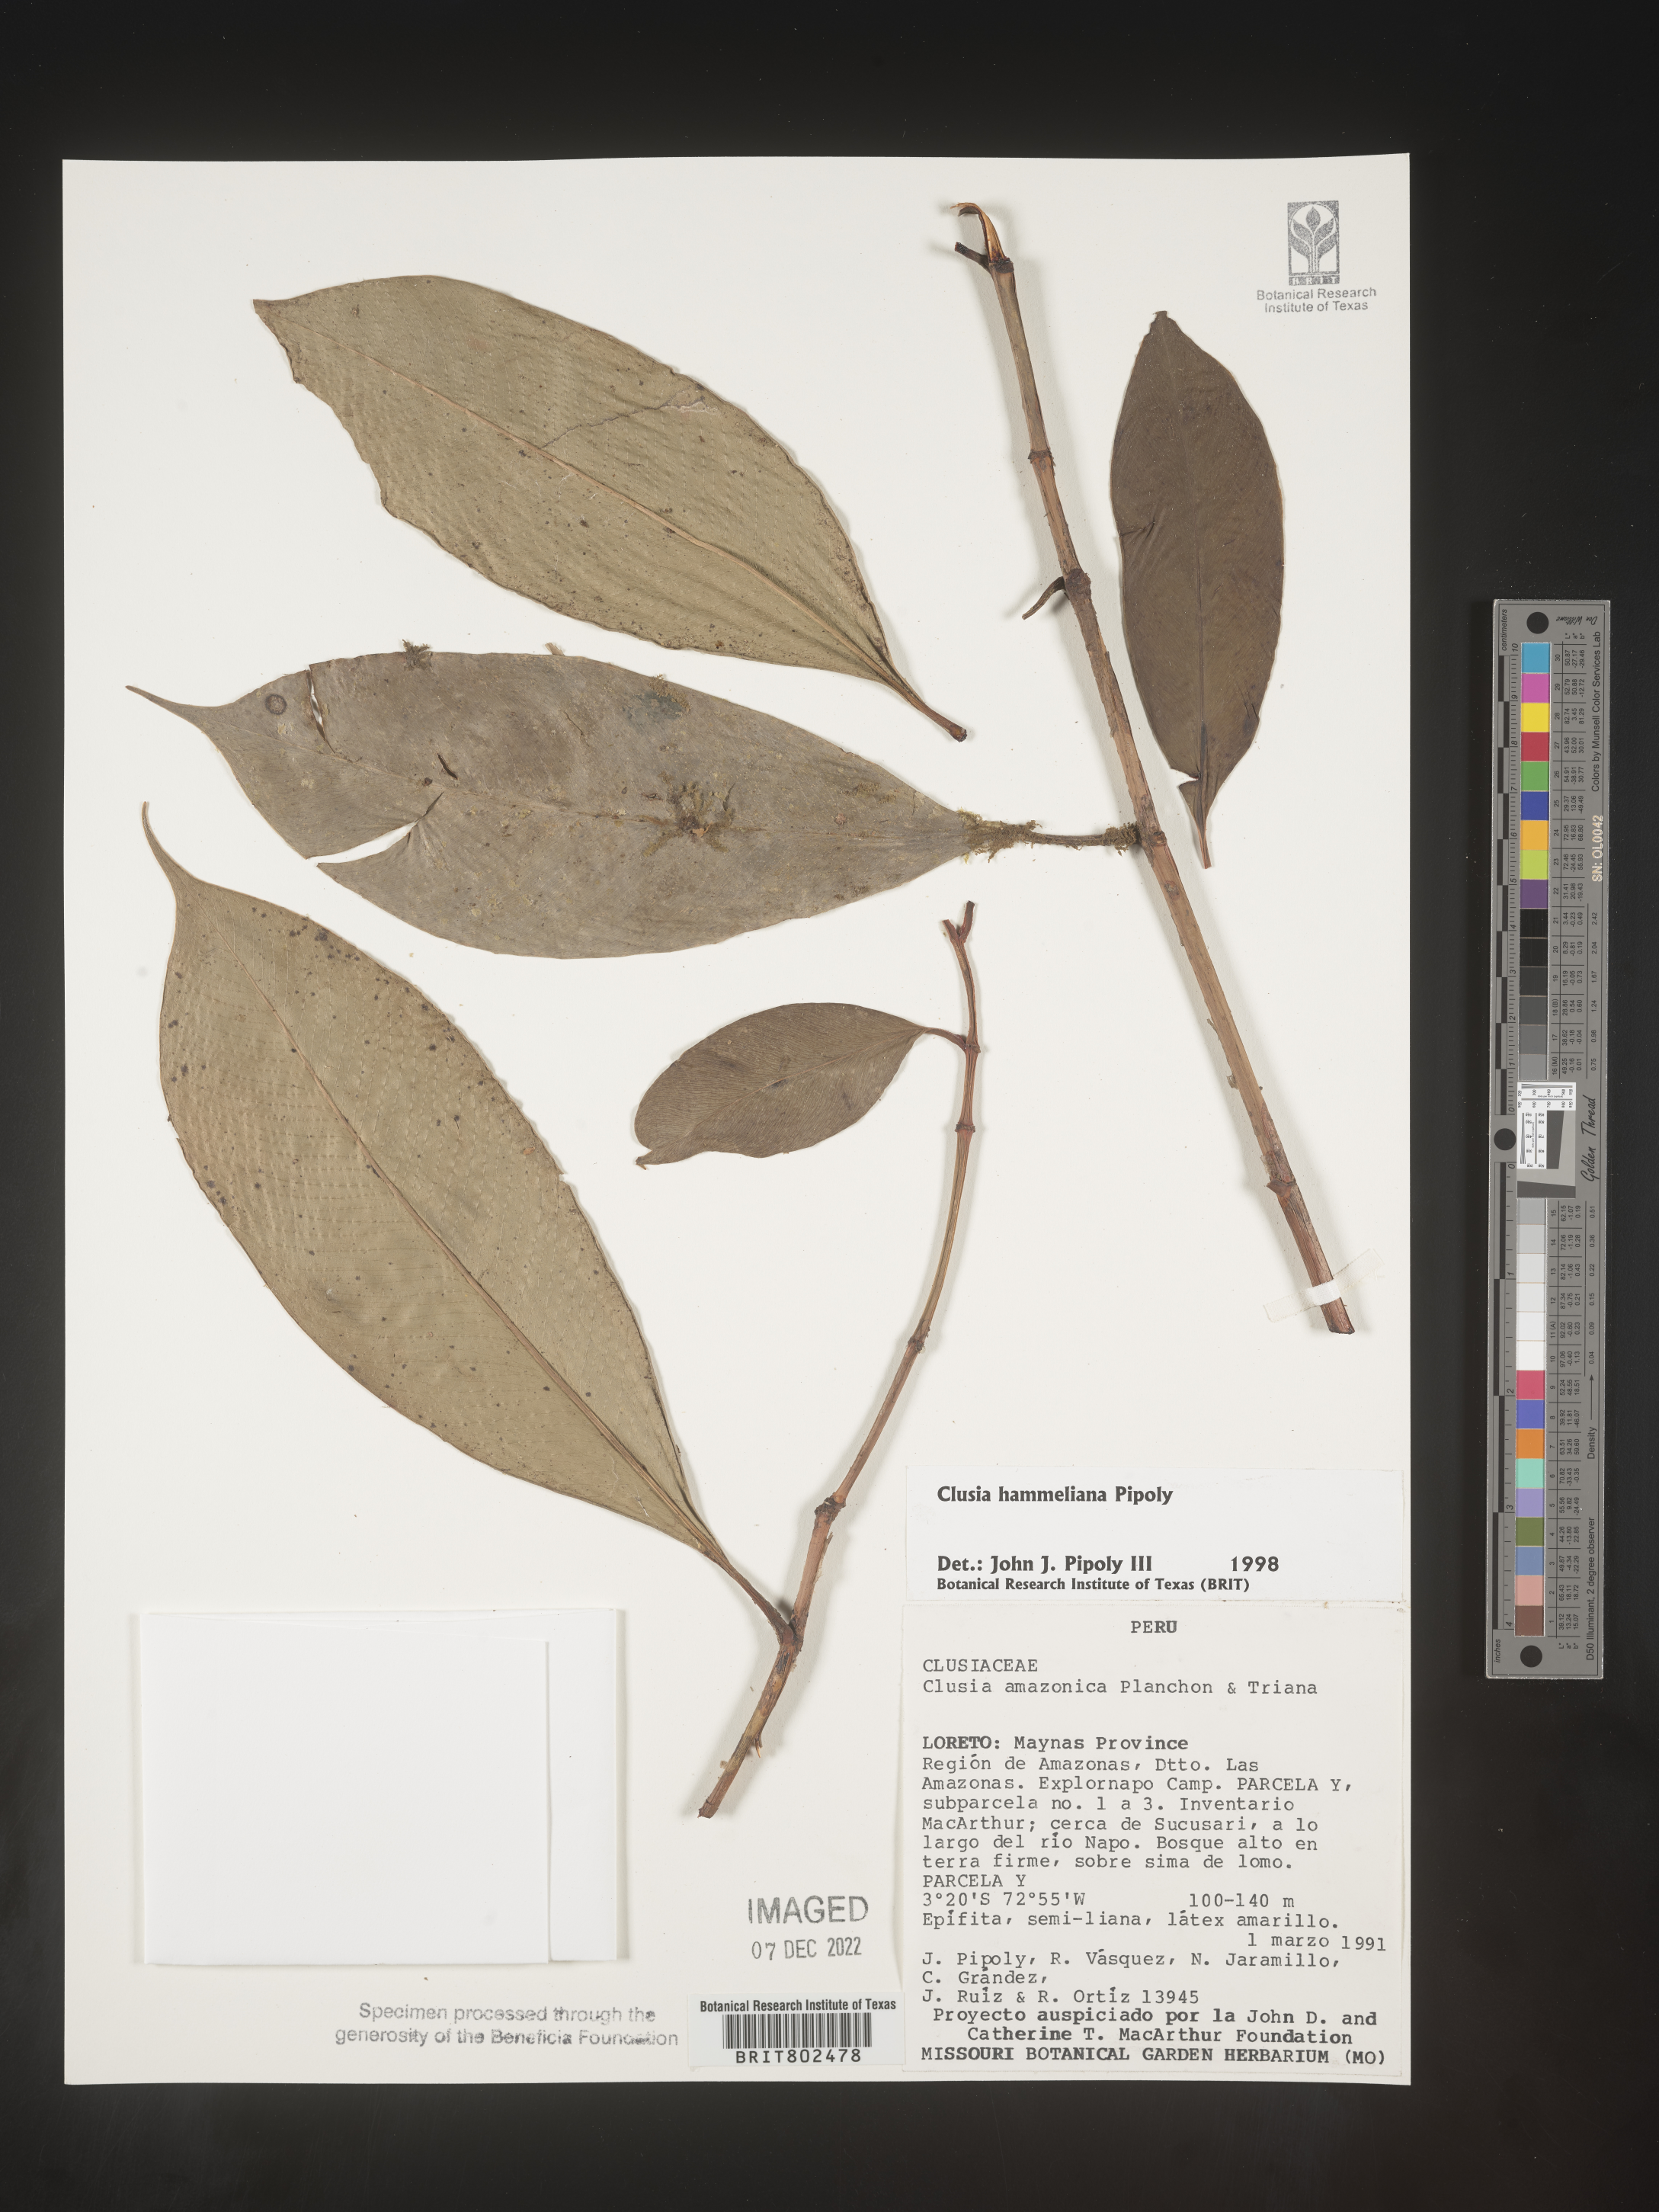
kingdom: Plantae
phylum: Tracheophyta
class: Magnoliopsida
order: Malpighiales
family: Clusiaceae
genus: Clusia
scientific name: Clusia hammeliana
